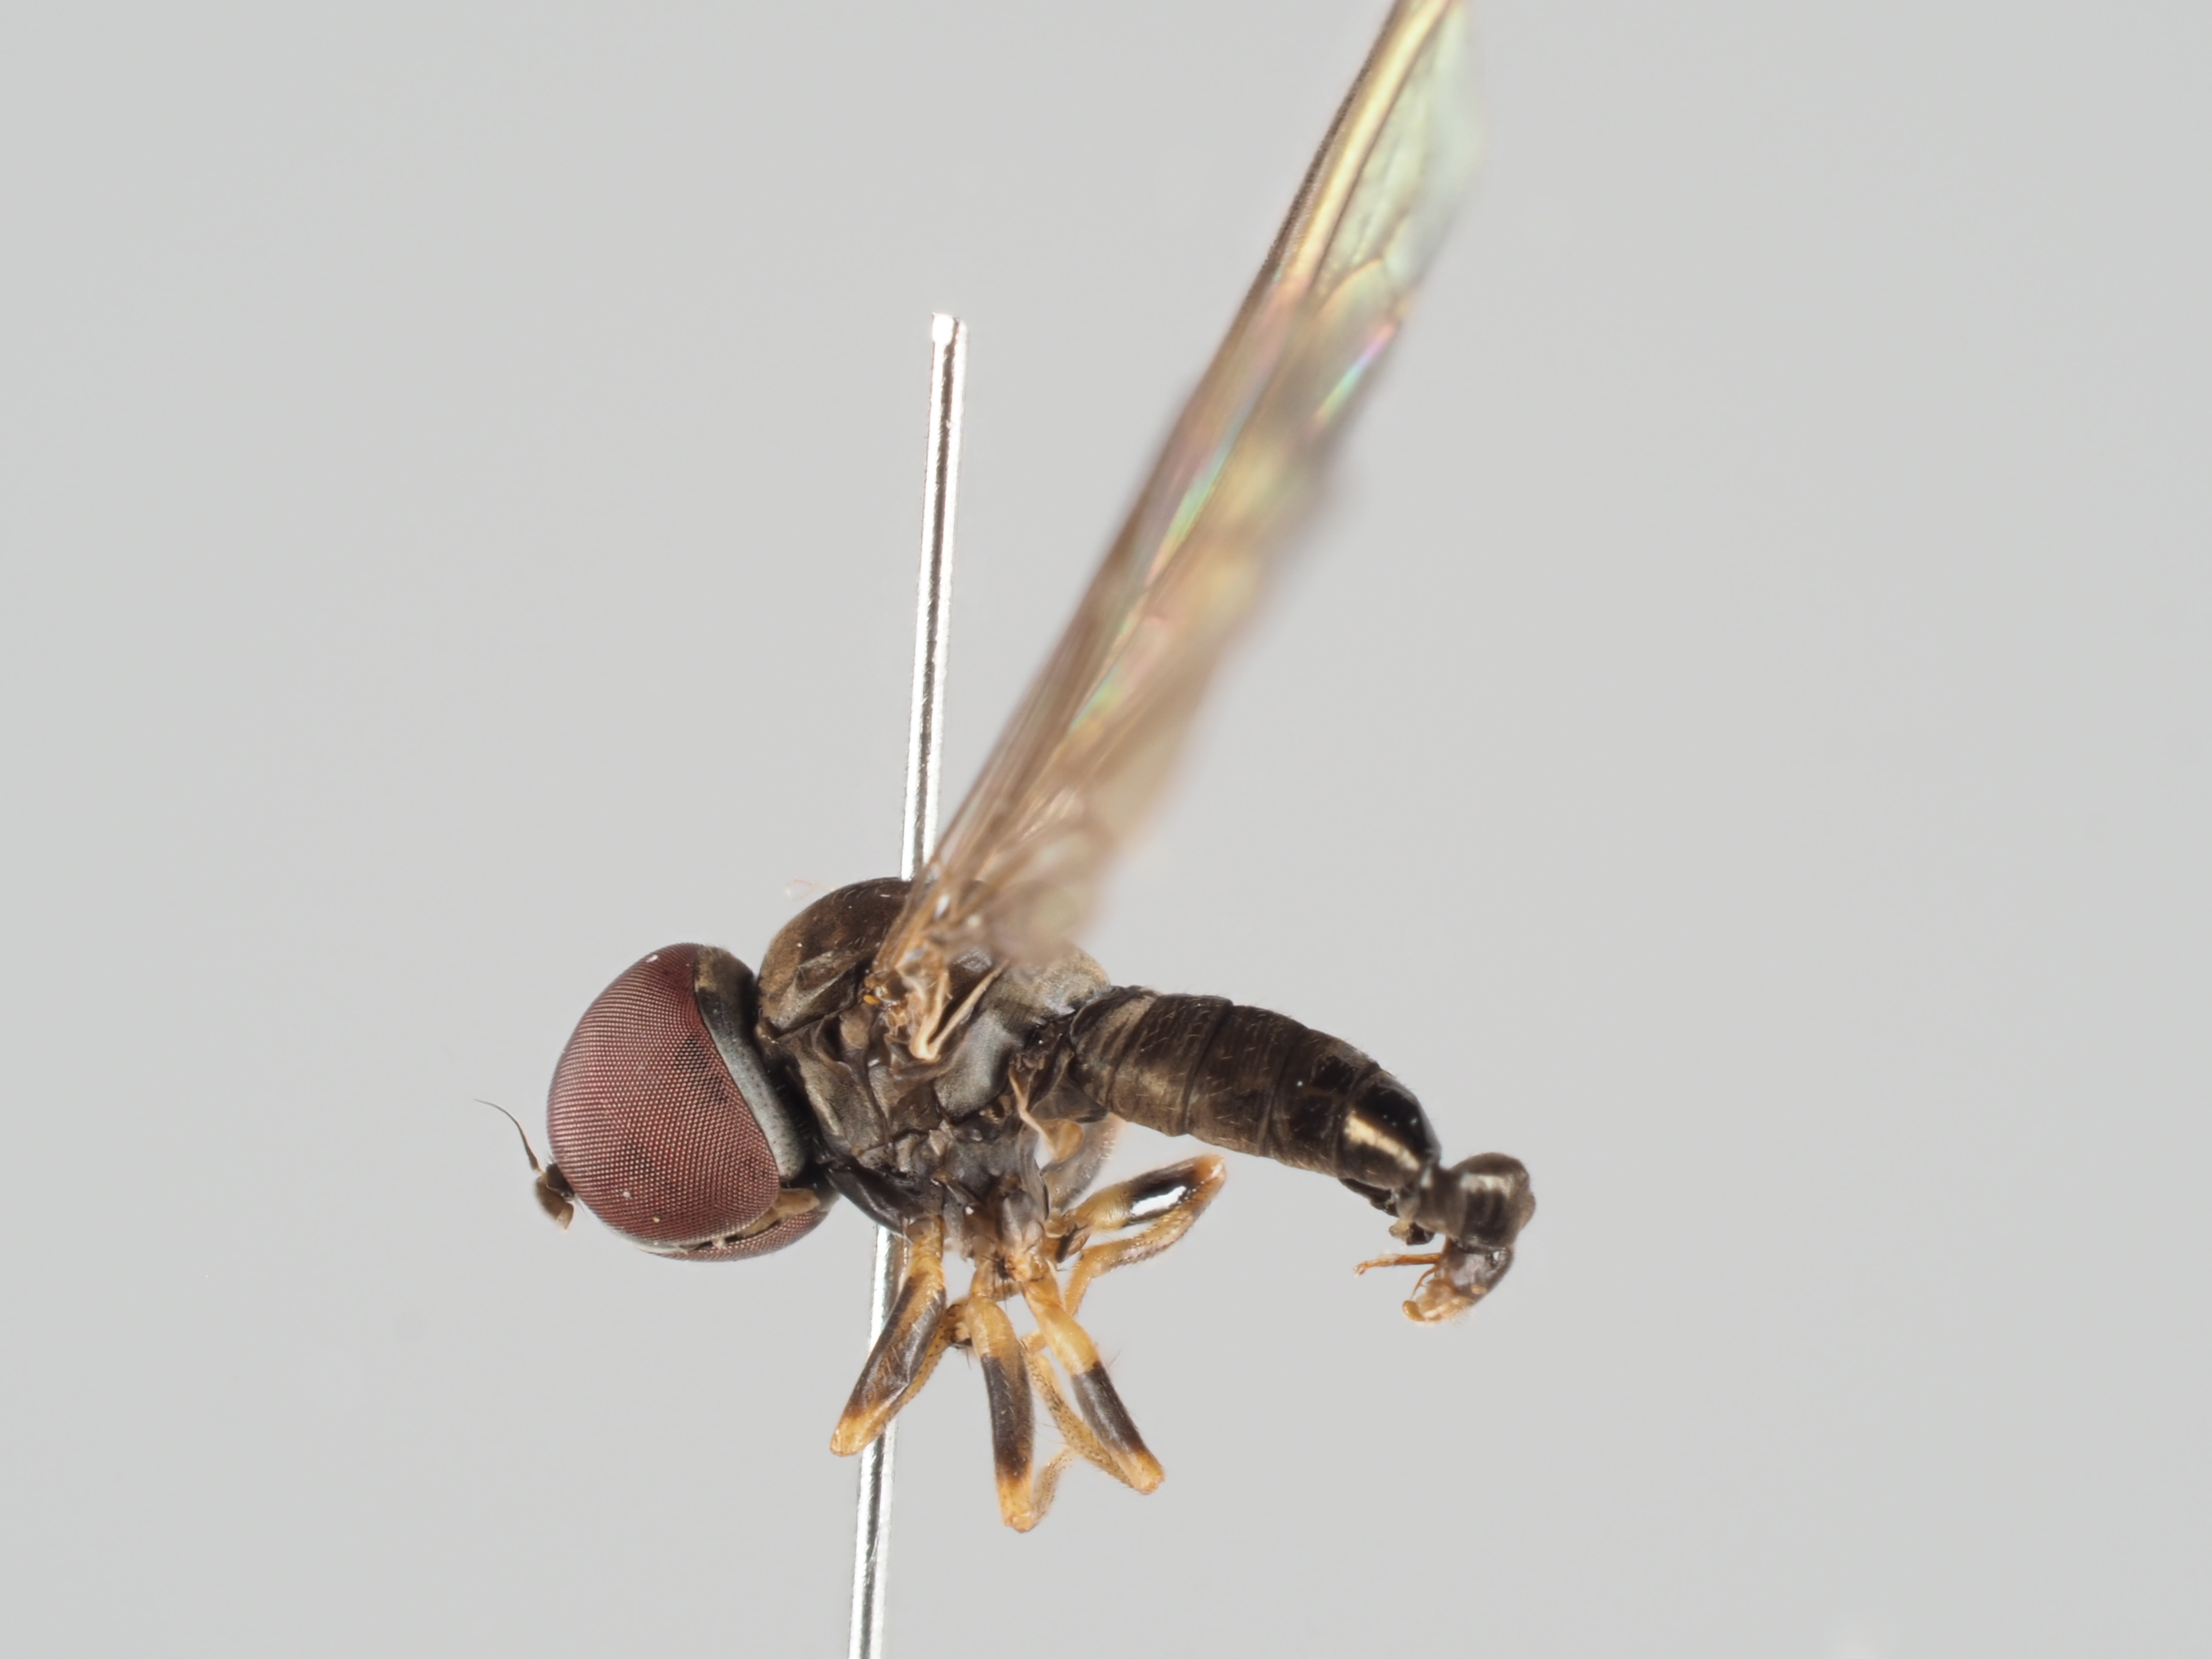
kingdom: Animalia
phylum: Arthropoda
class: Insecta
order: Diptera
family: Pipunculidae
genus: Semicephalops
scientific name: Semicephalops subultimus
